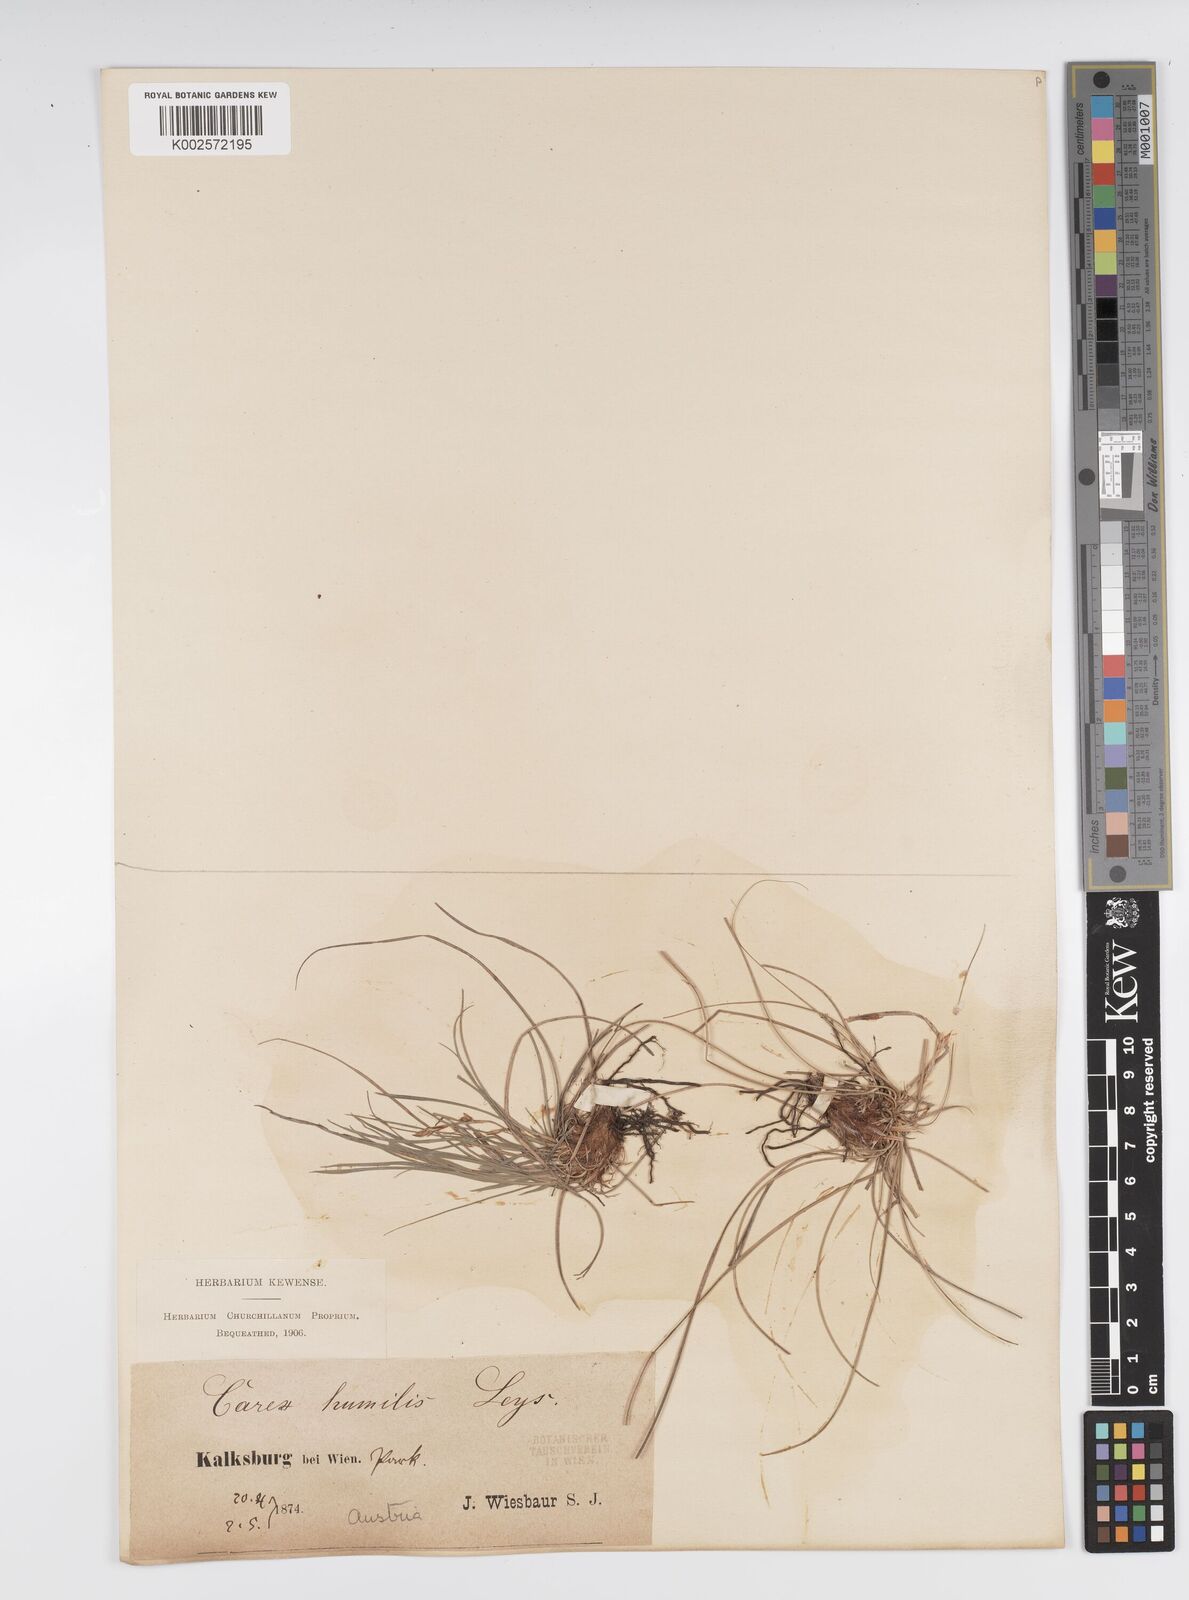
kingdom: Plantae
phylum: Tracheophyta
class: Liliopsida
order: Poales
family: Cyperaceae
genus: Carex
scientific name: Carex humilis
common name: Dwarf sedge
